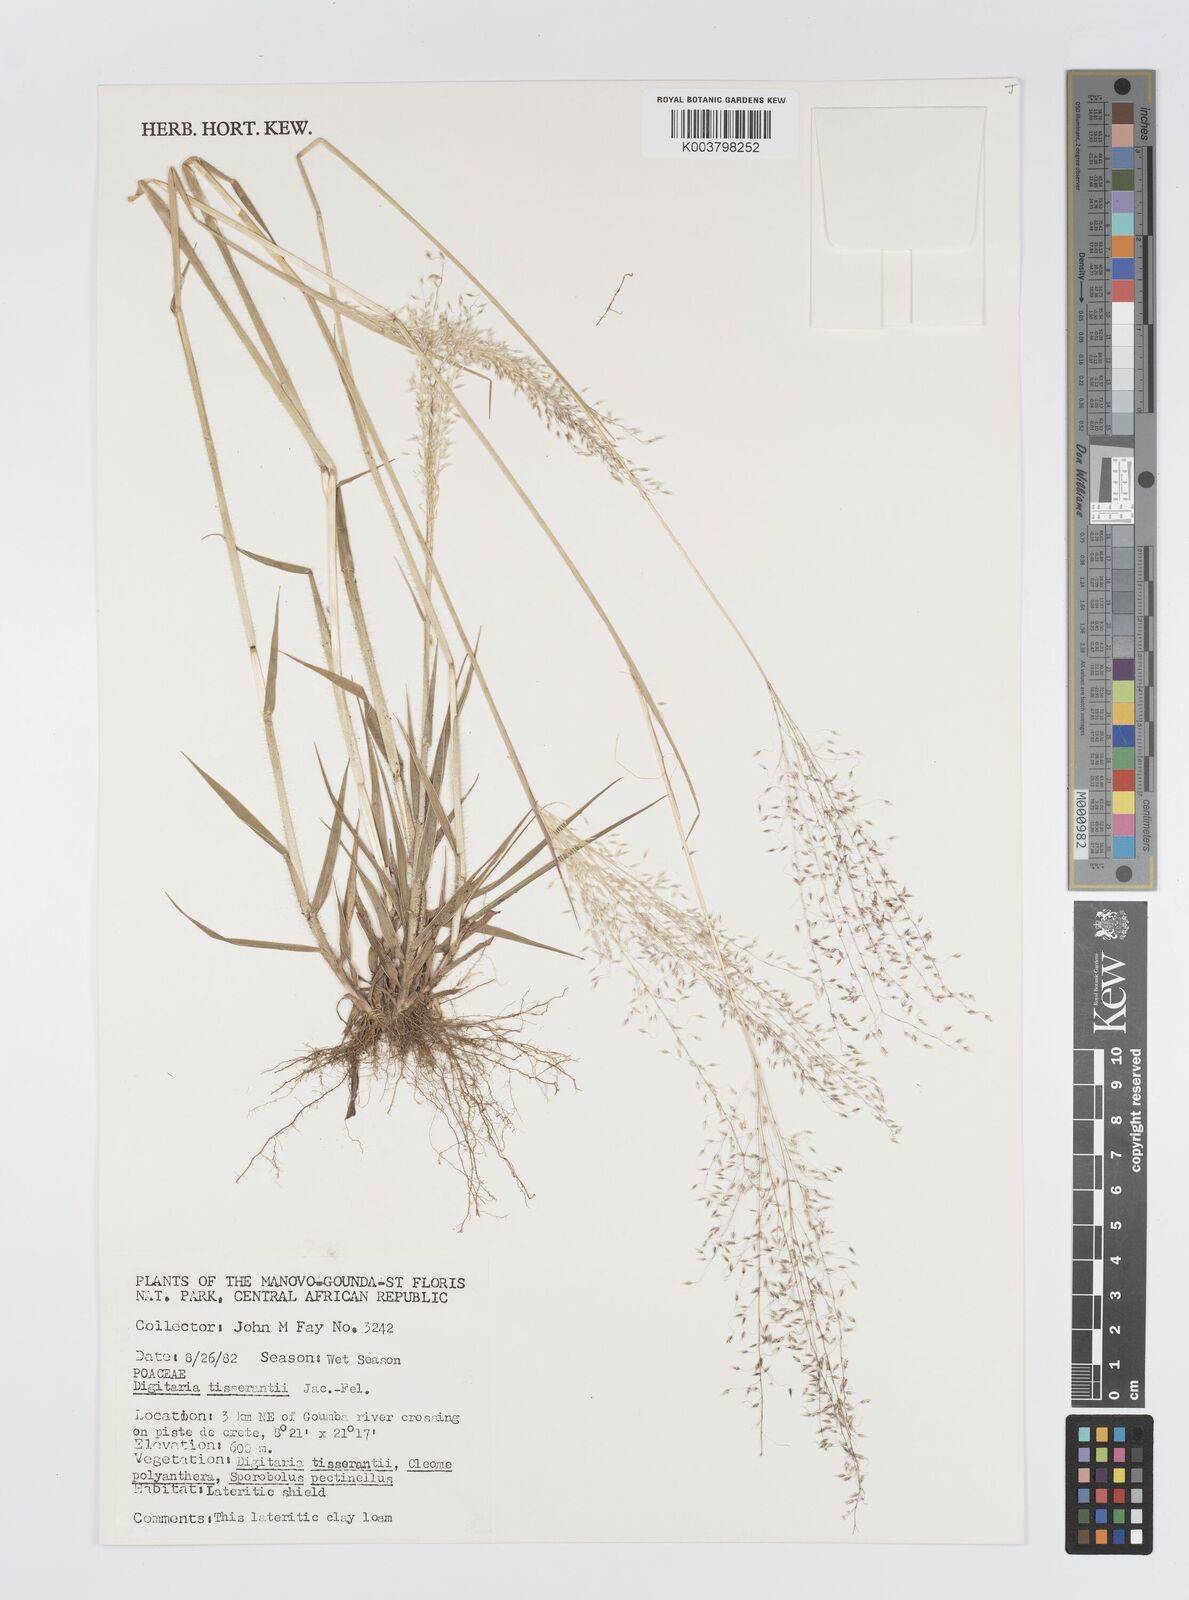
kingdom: Plantae
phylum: Tracheophyta
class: Liliopsida
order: Poales
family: Poaceae
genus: Digitaria
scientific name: Digitaria tisserantii
